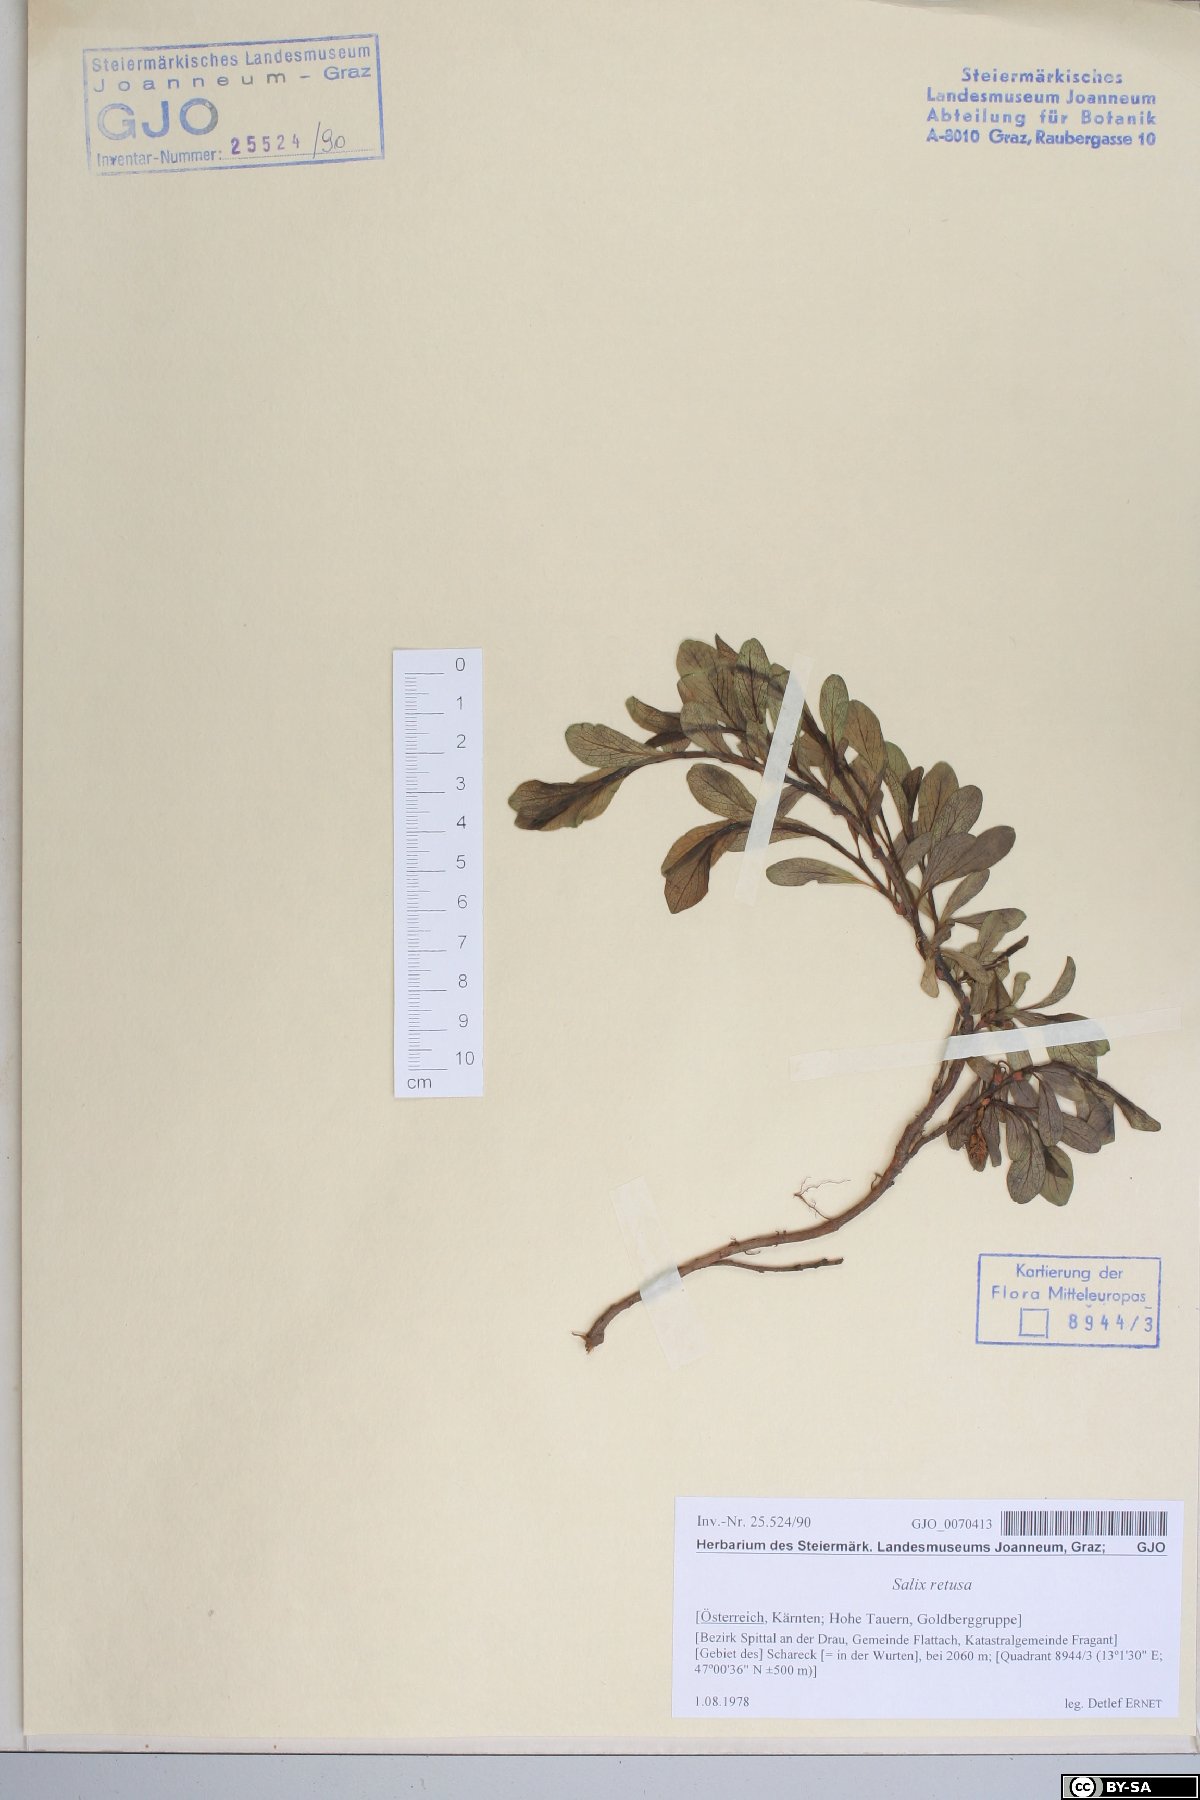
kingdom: Plantae
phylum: Tracheophyta
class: Magnoliopsida
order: Malpighiales
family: Salicaceae
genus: Salix
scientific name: Salix retusa
